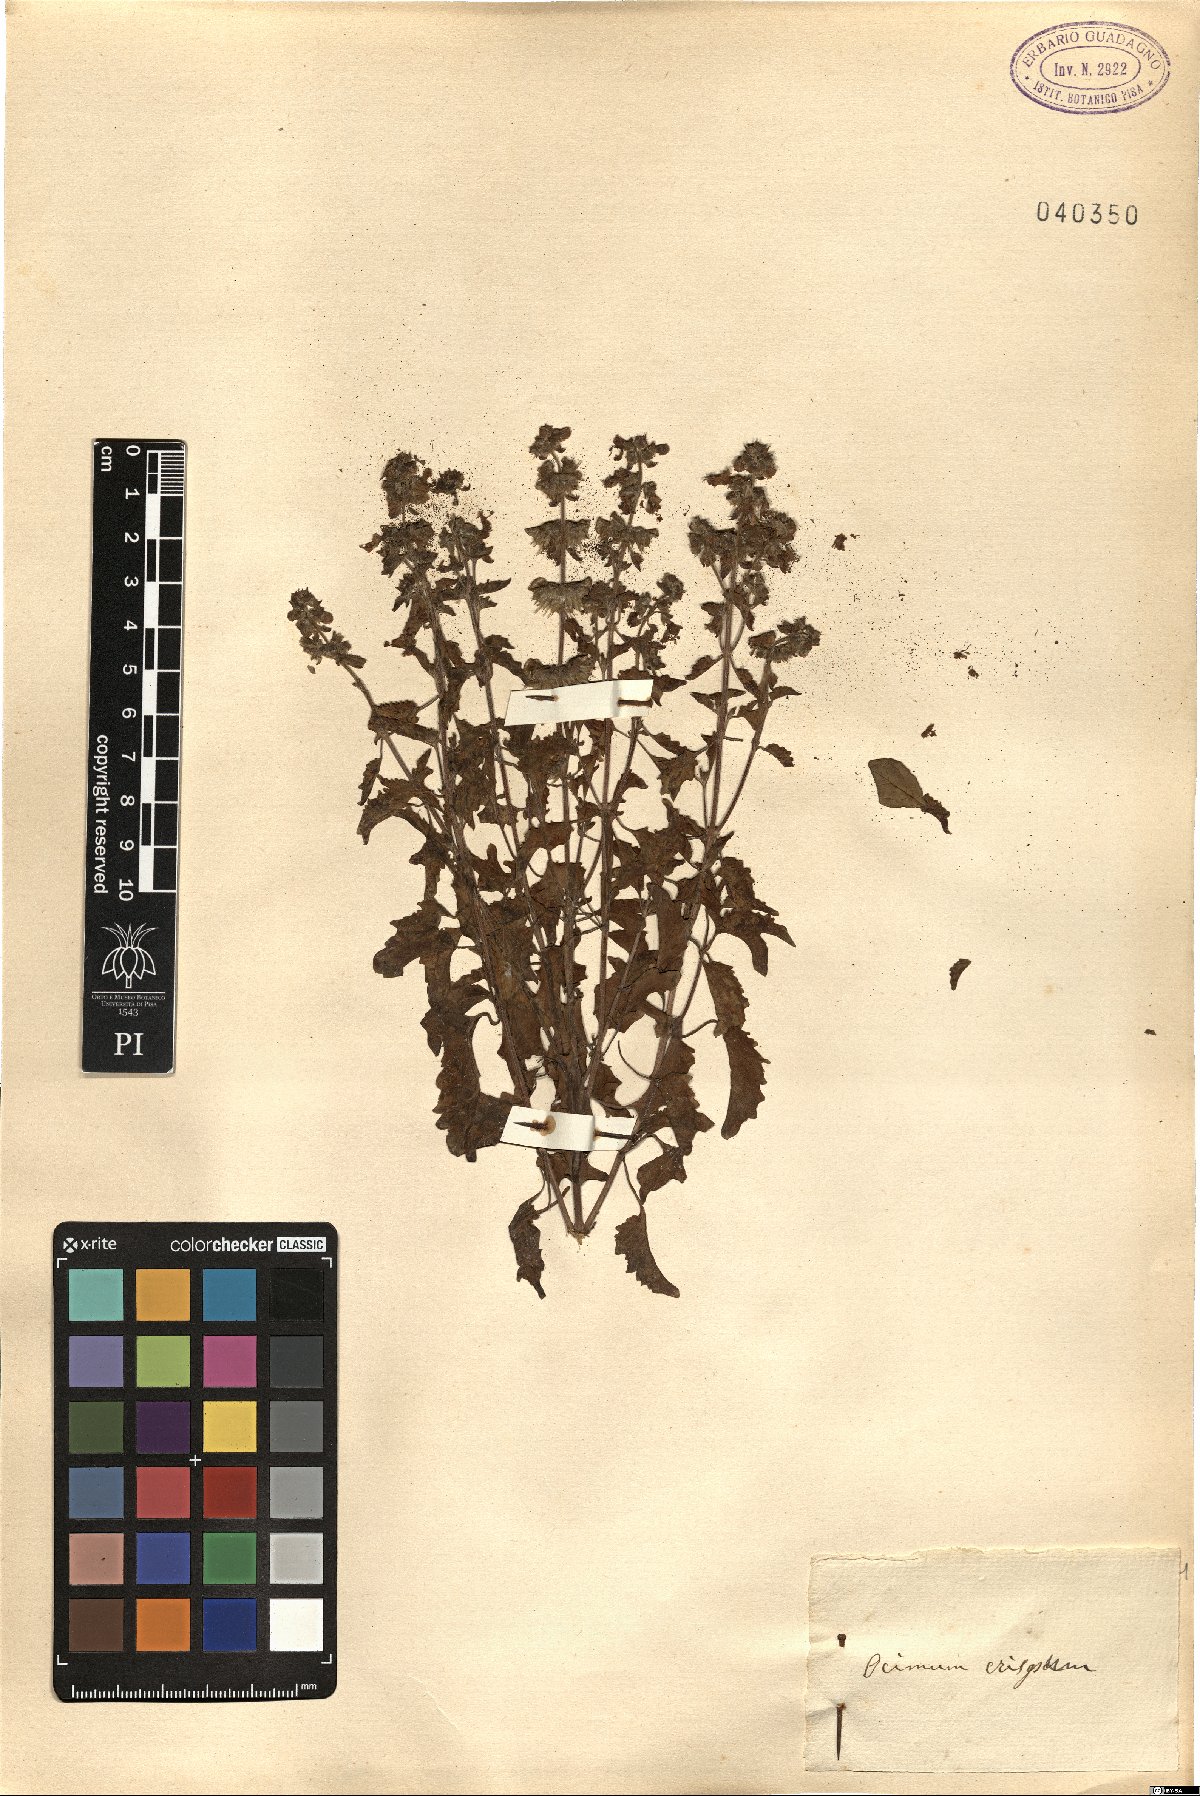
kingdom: Plantae
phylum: Tracheophyta
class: Magnoliopsida
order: Lamiales
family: Lamiaceae
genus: Perilla
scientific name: Perilla frutescens
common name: Perilla
